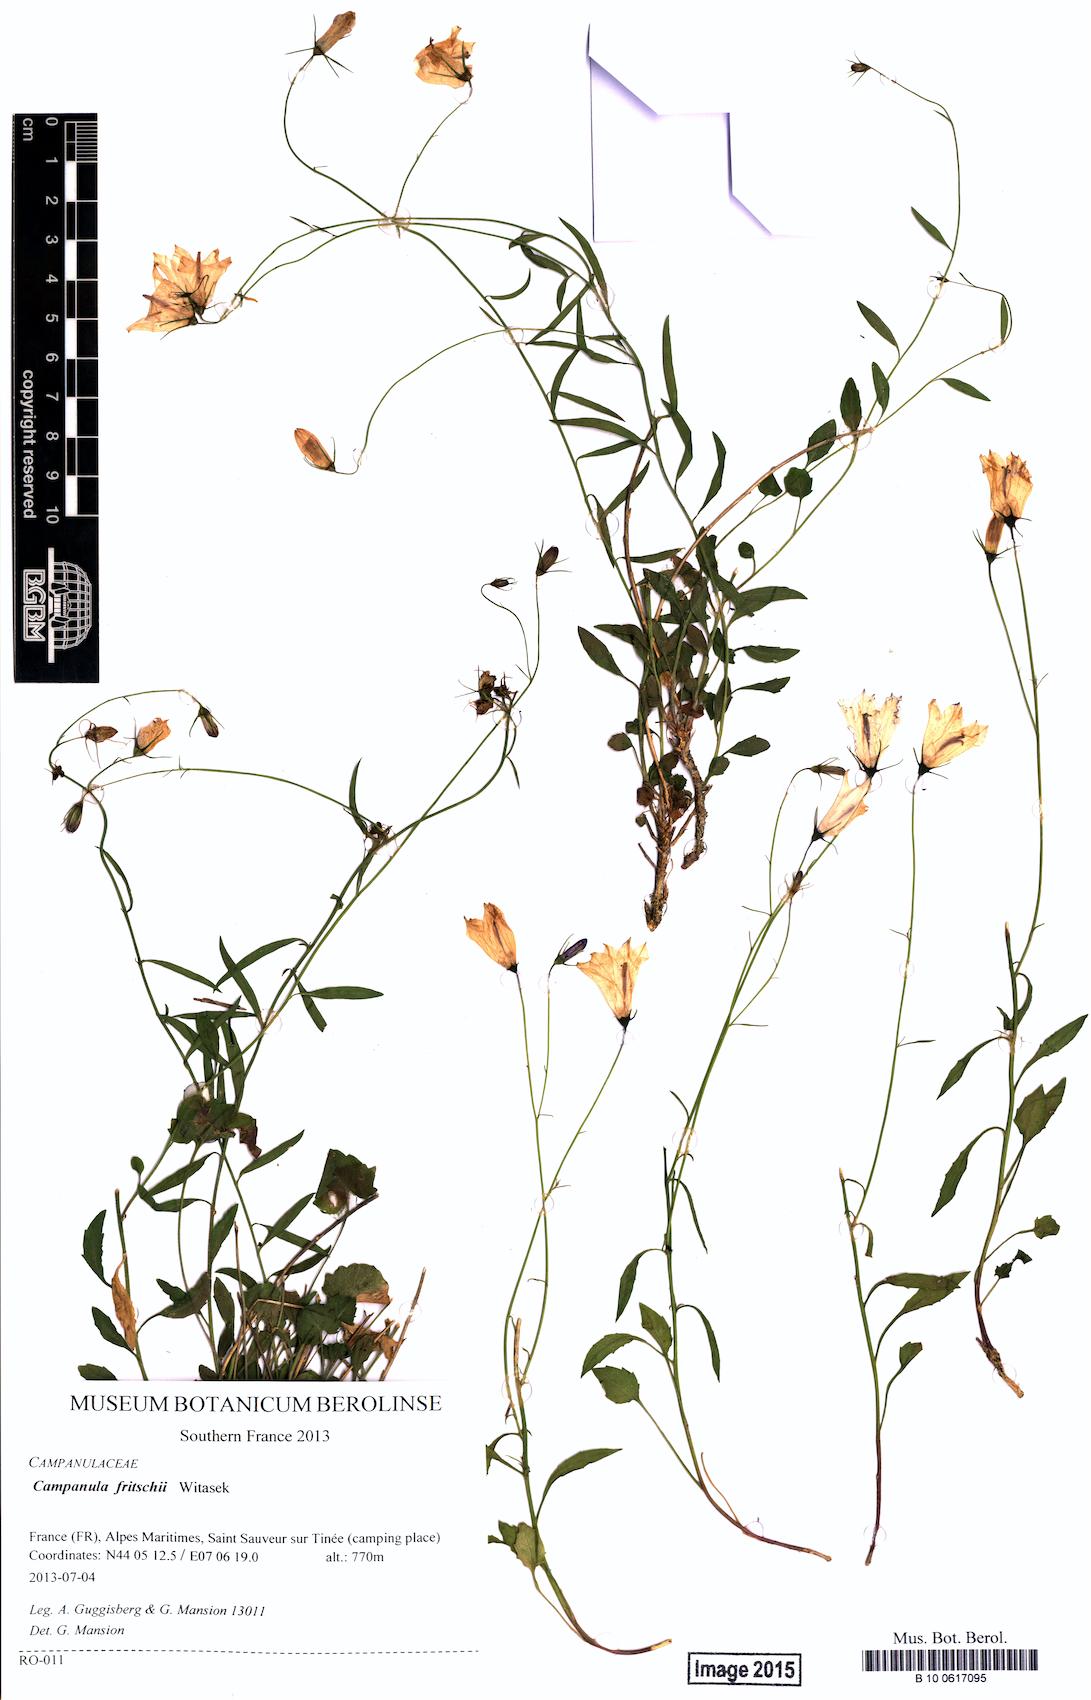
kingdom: Plantae
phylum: Tracheophyta
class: Magnoliopsida
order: Asterales
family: Campanulaceae
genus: Campanula
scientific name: Campanula fritschii
